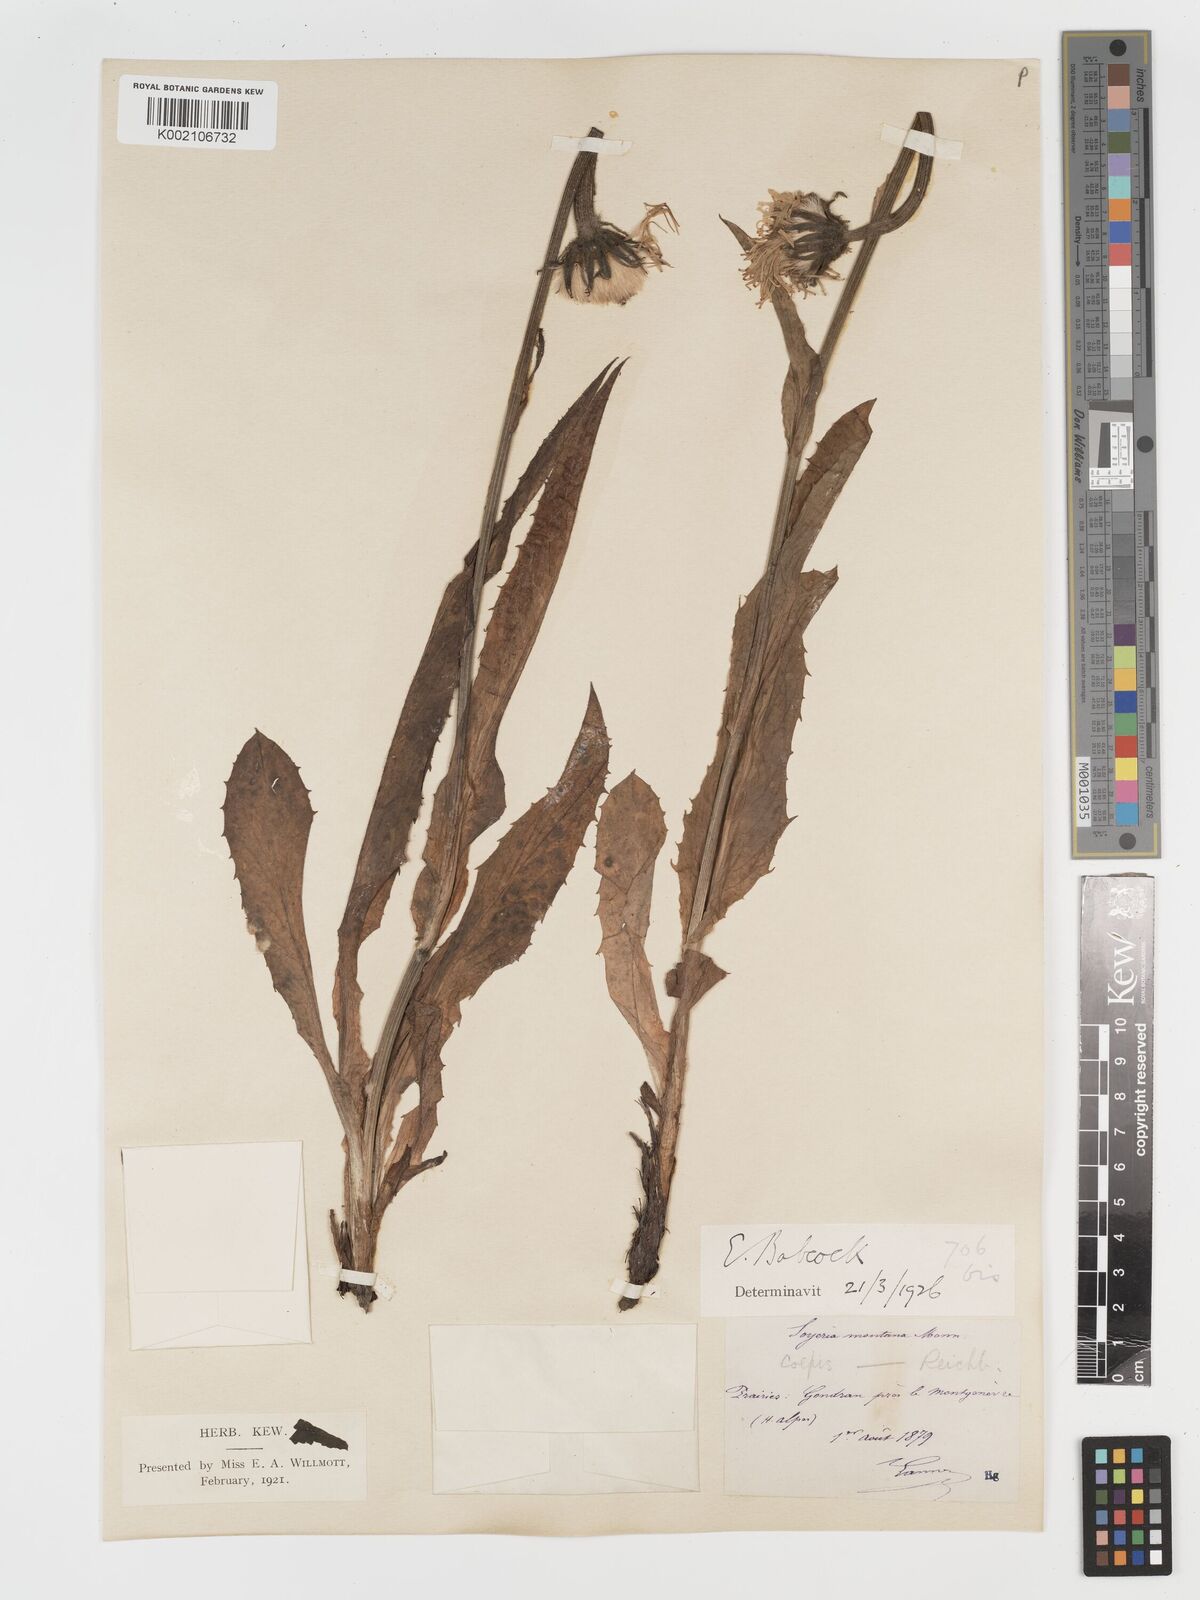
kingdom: Plantae
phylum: Tracheophyta
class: Magnoliopsida
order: Asterales
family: Asteraceae
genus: Crepis
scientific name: Crepis pontana
